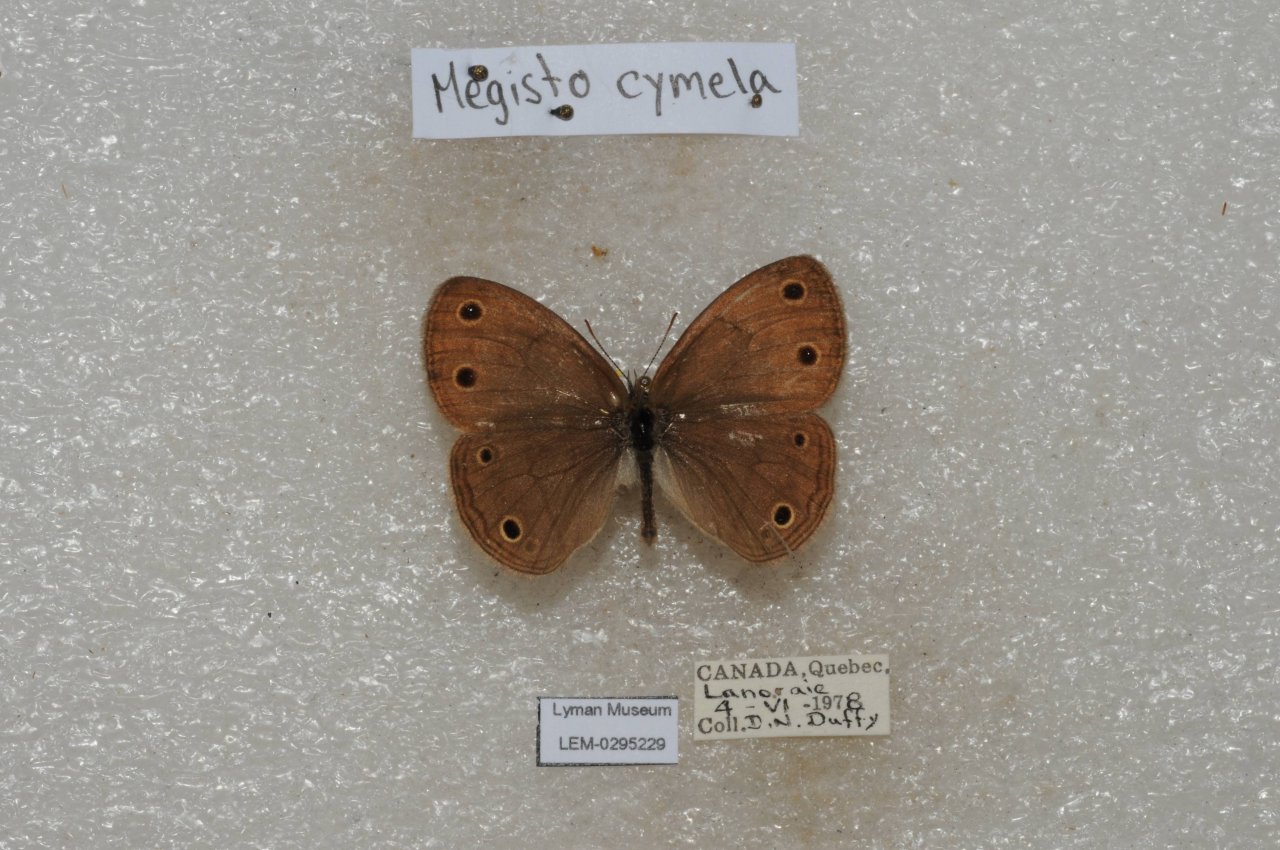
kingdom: Animalia
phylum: Arthropoda
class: Insecta
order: Lepidoptera
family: Nymphalidae
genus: Euptychia
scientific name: Euptychia cymela
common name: Little Wood Satyr
